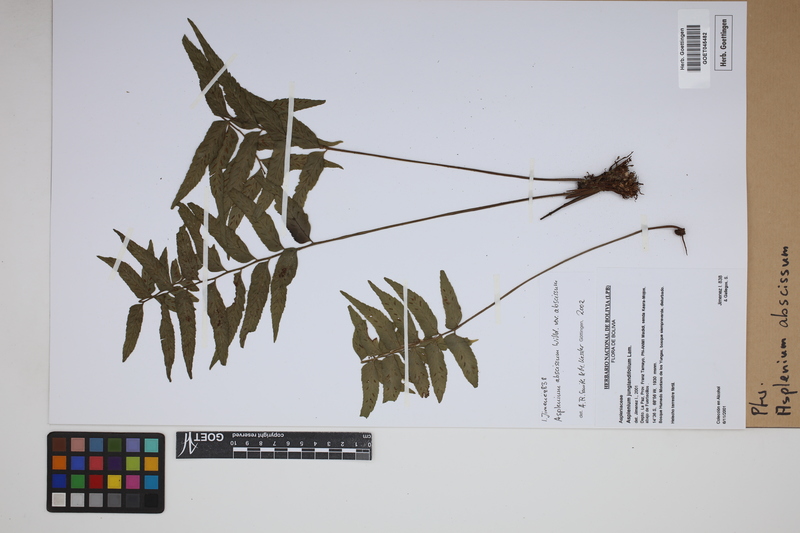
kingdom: Plantae
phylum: Tracheophyta
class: Polypodiopsida
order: Polypodiales
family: Aspleniaceae
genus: Asplenium
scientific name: Asplenium abscissum
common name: Cutleaf spleenwort
